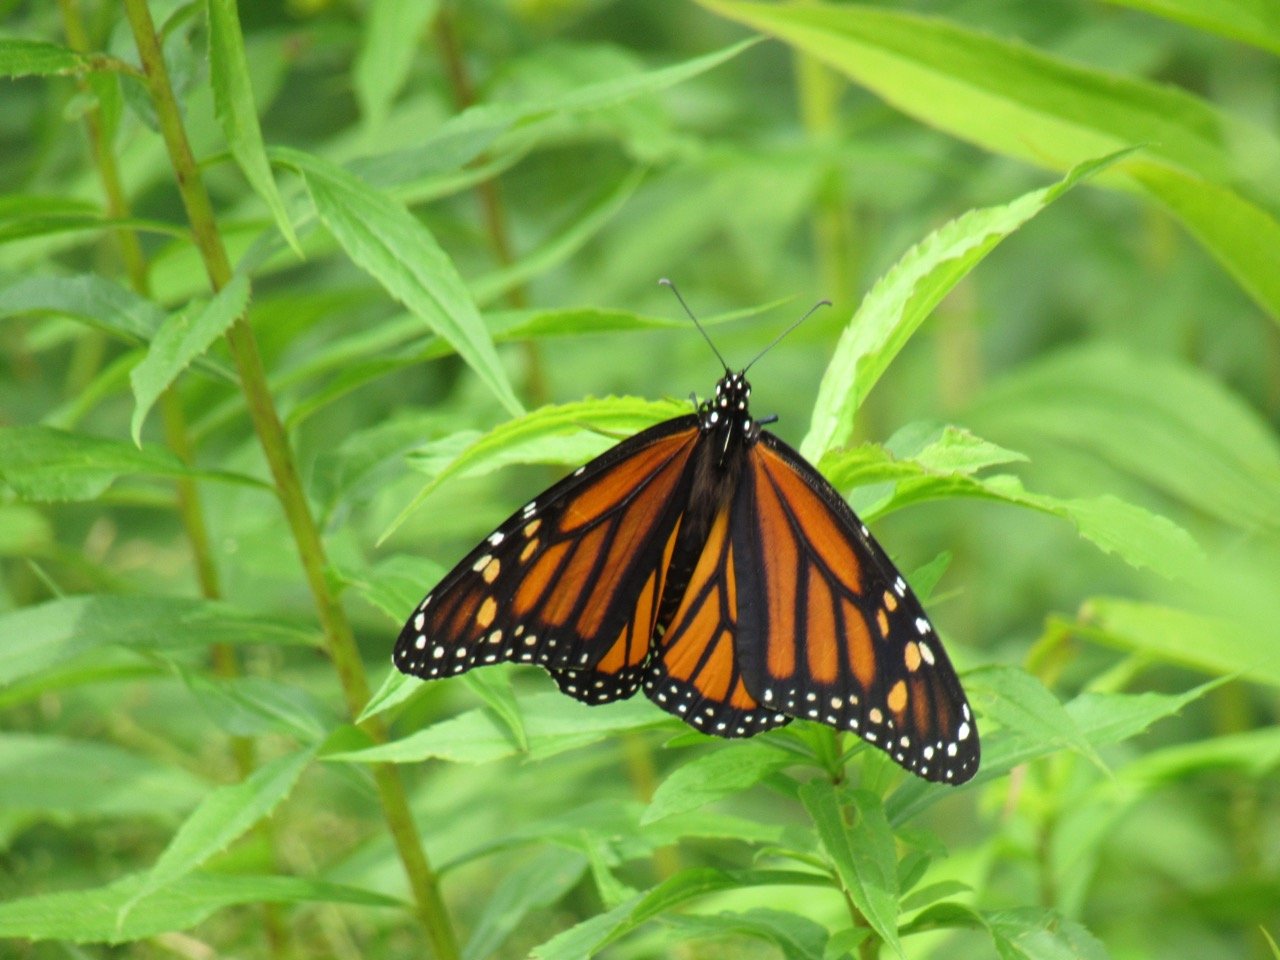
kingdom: Animalia
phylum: Arthropoda
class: Insecta
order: Lepidoptera
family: Nymphalidae
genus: Danaus
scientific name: Danaus plexippus
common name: Monarch
